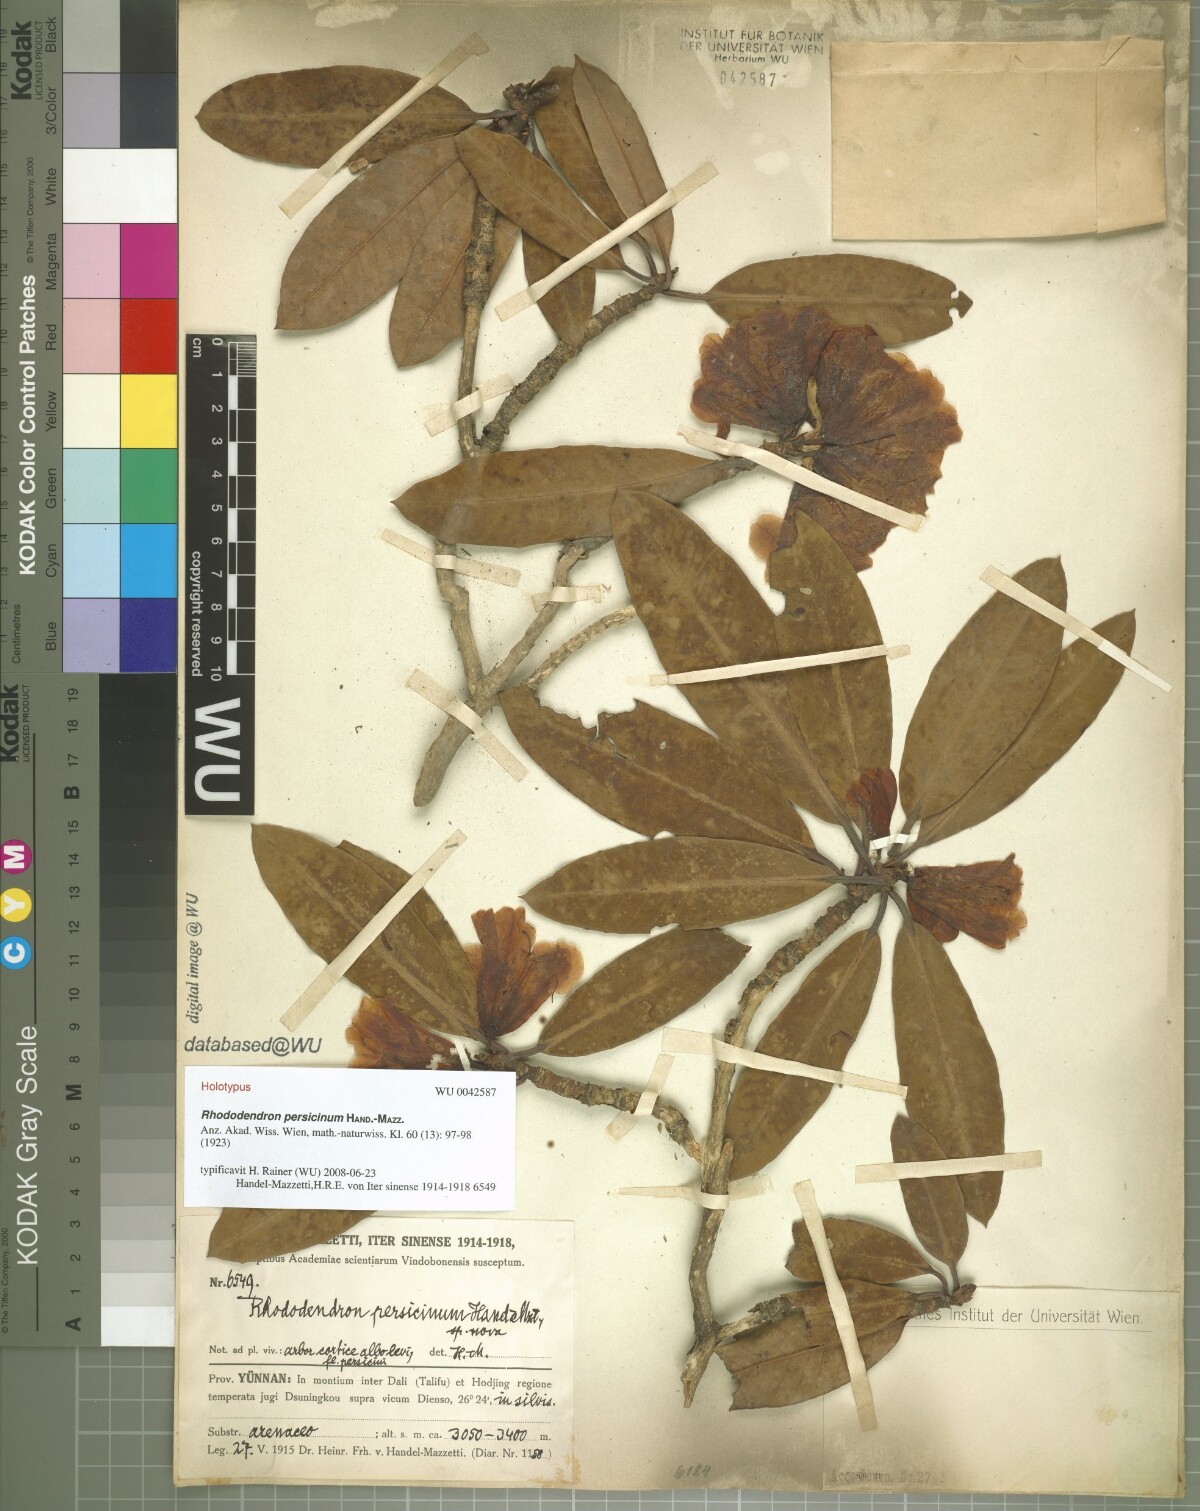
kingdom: Plantae
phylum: Tracheophyta
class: Magnoliopsida
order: Ericales
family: Ericaceae
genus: Rhododendron
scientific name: Rhododendron anthosphaerum
